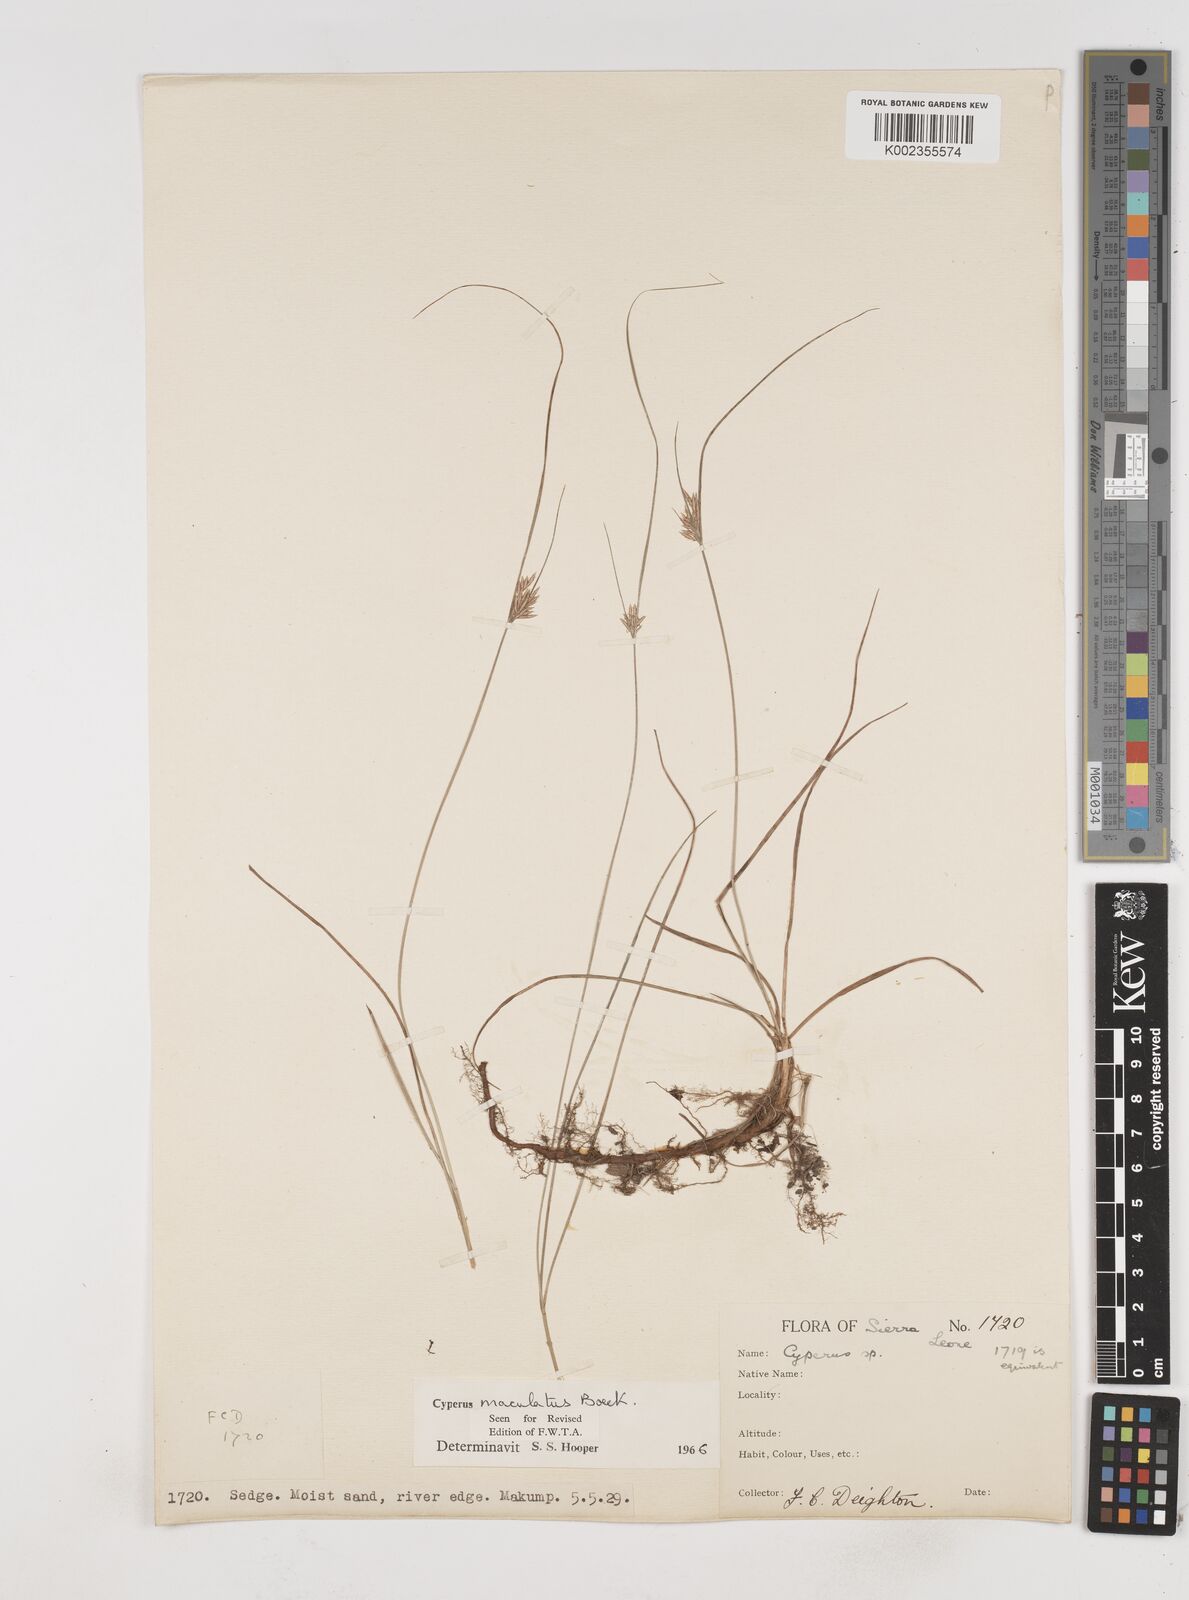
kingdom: Plantae
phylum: Tracheophyta
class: Liliopsida
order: Poales
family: Cyperaceae
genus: Cyperus
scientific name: Cyperus maculatus
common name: Maculated sedge
